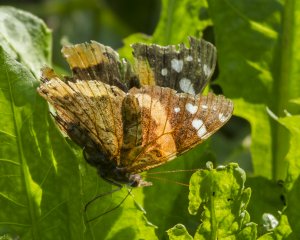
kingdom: Animalia
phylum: Arthropoda
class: Insecta
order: Lepidoptera
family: Nymphalidae
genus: Vanessa
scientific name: Vanessa atalanta
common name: Red Admiral
